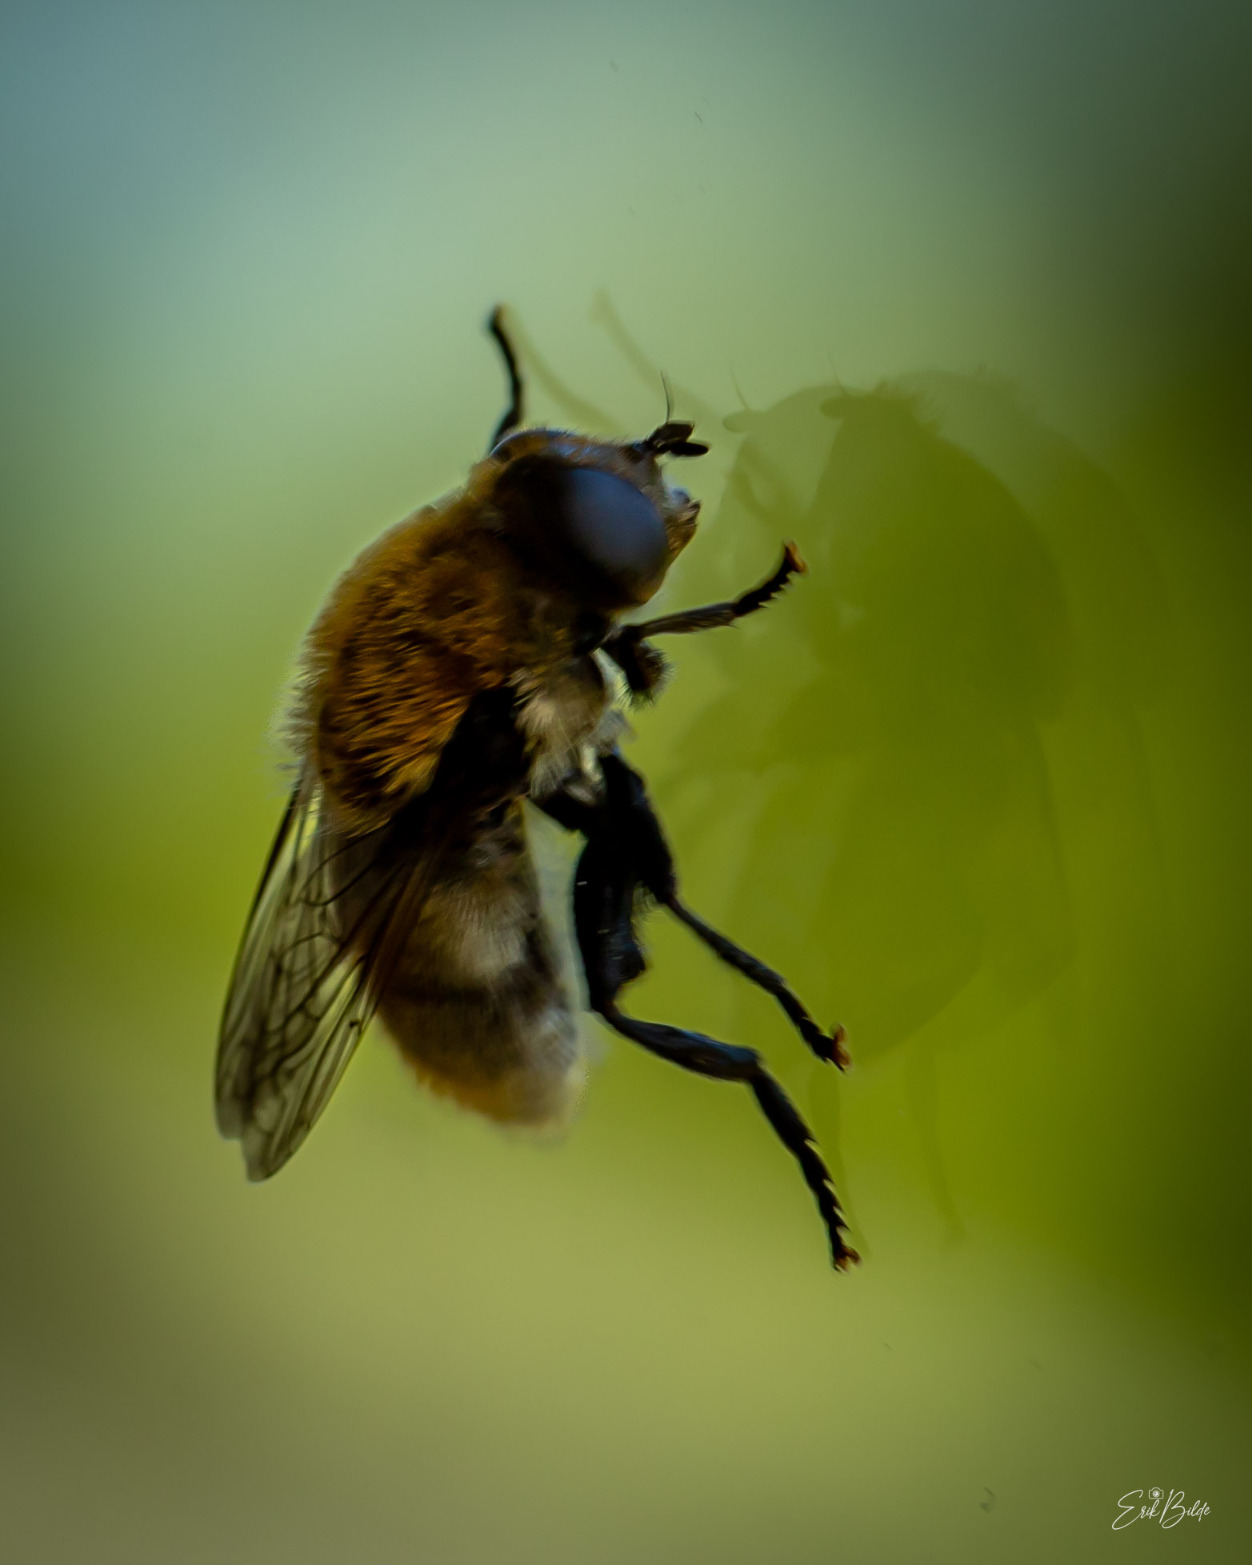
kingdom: Animalia
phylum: Arthropoda
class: Insecta
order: Diptera
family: Syrphidae
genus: Merodon
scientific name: Merodon equestris
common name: Stor narcisflue
